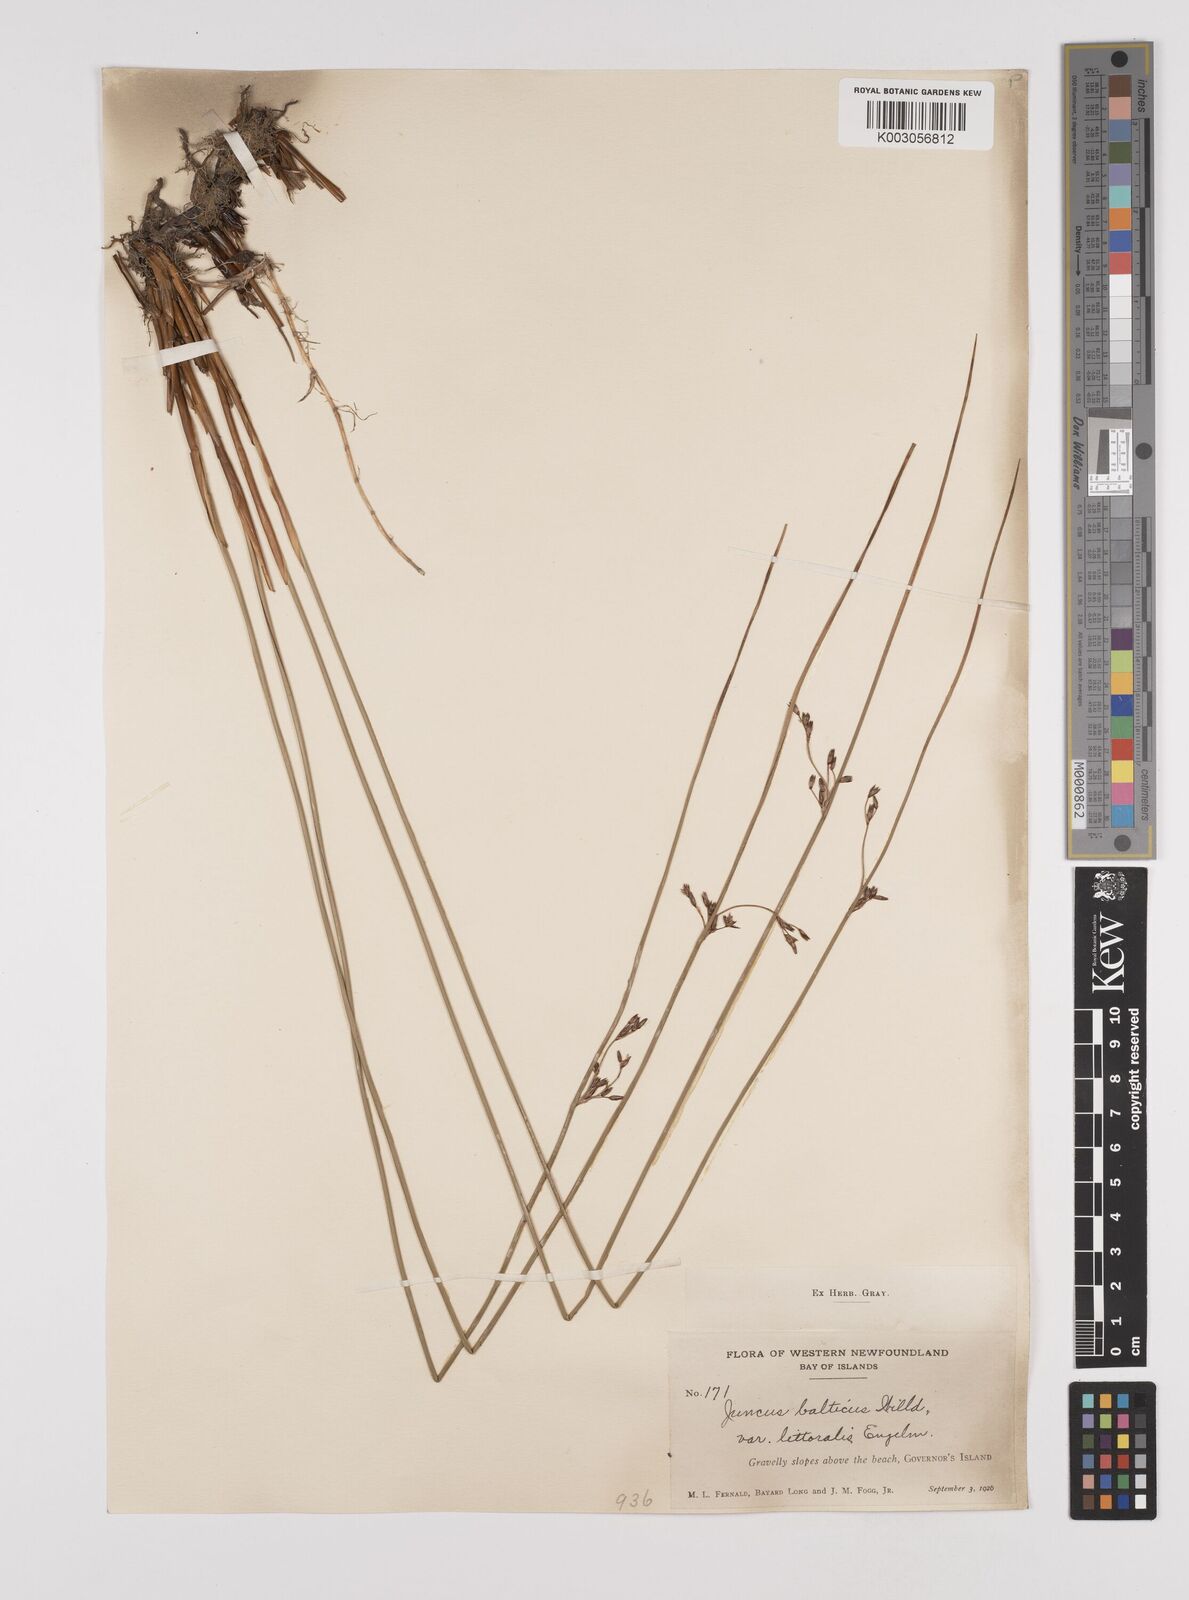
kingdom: Plantae
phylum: Tracheophyta
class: Liliopsida
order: Poales
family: Juncaceae
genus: Juncus
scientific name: Juncus balticus
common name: Baltic rush
